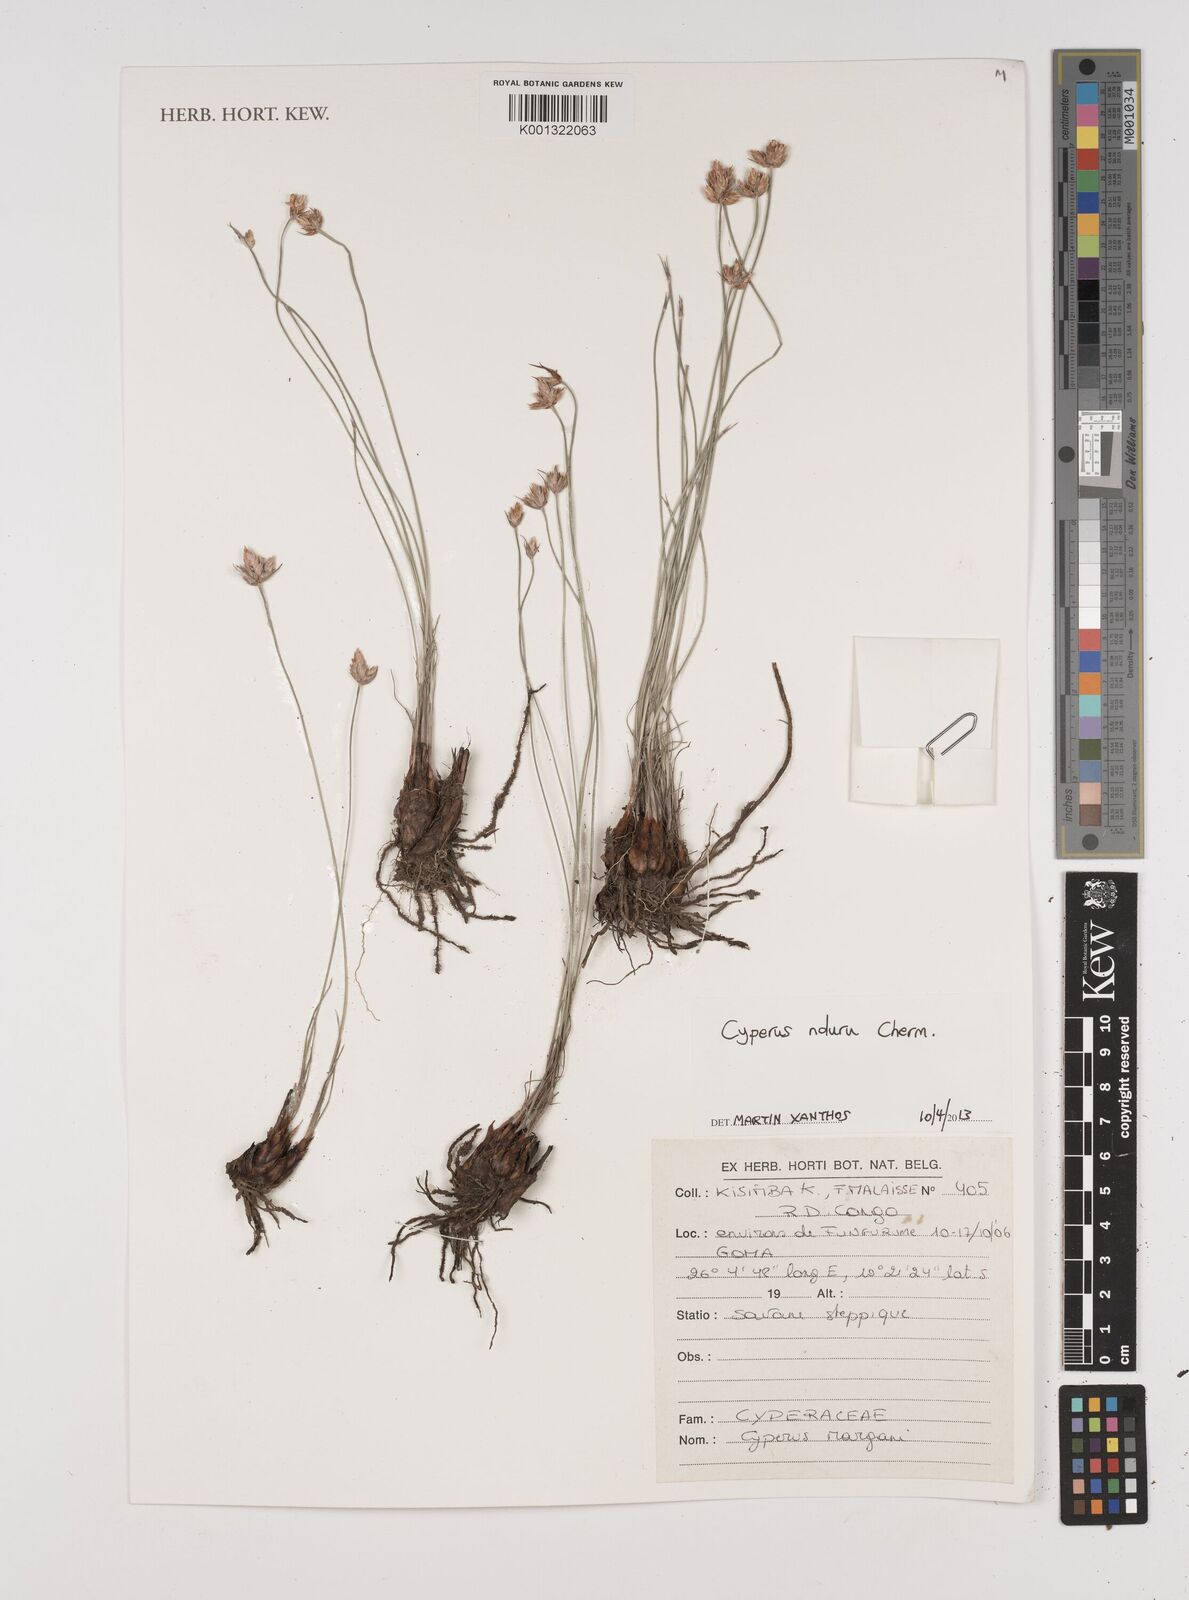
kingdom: Plantae
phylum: Tracheophyta
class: Liliopsida
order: Poales
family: Cyperaceae
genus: Cyperus
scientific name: Cyperus nduru
